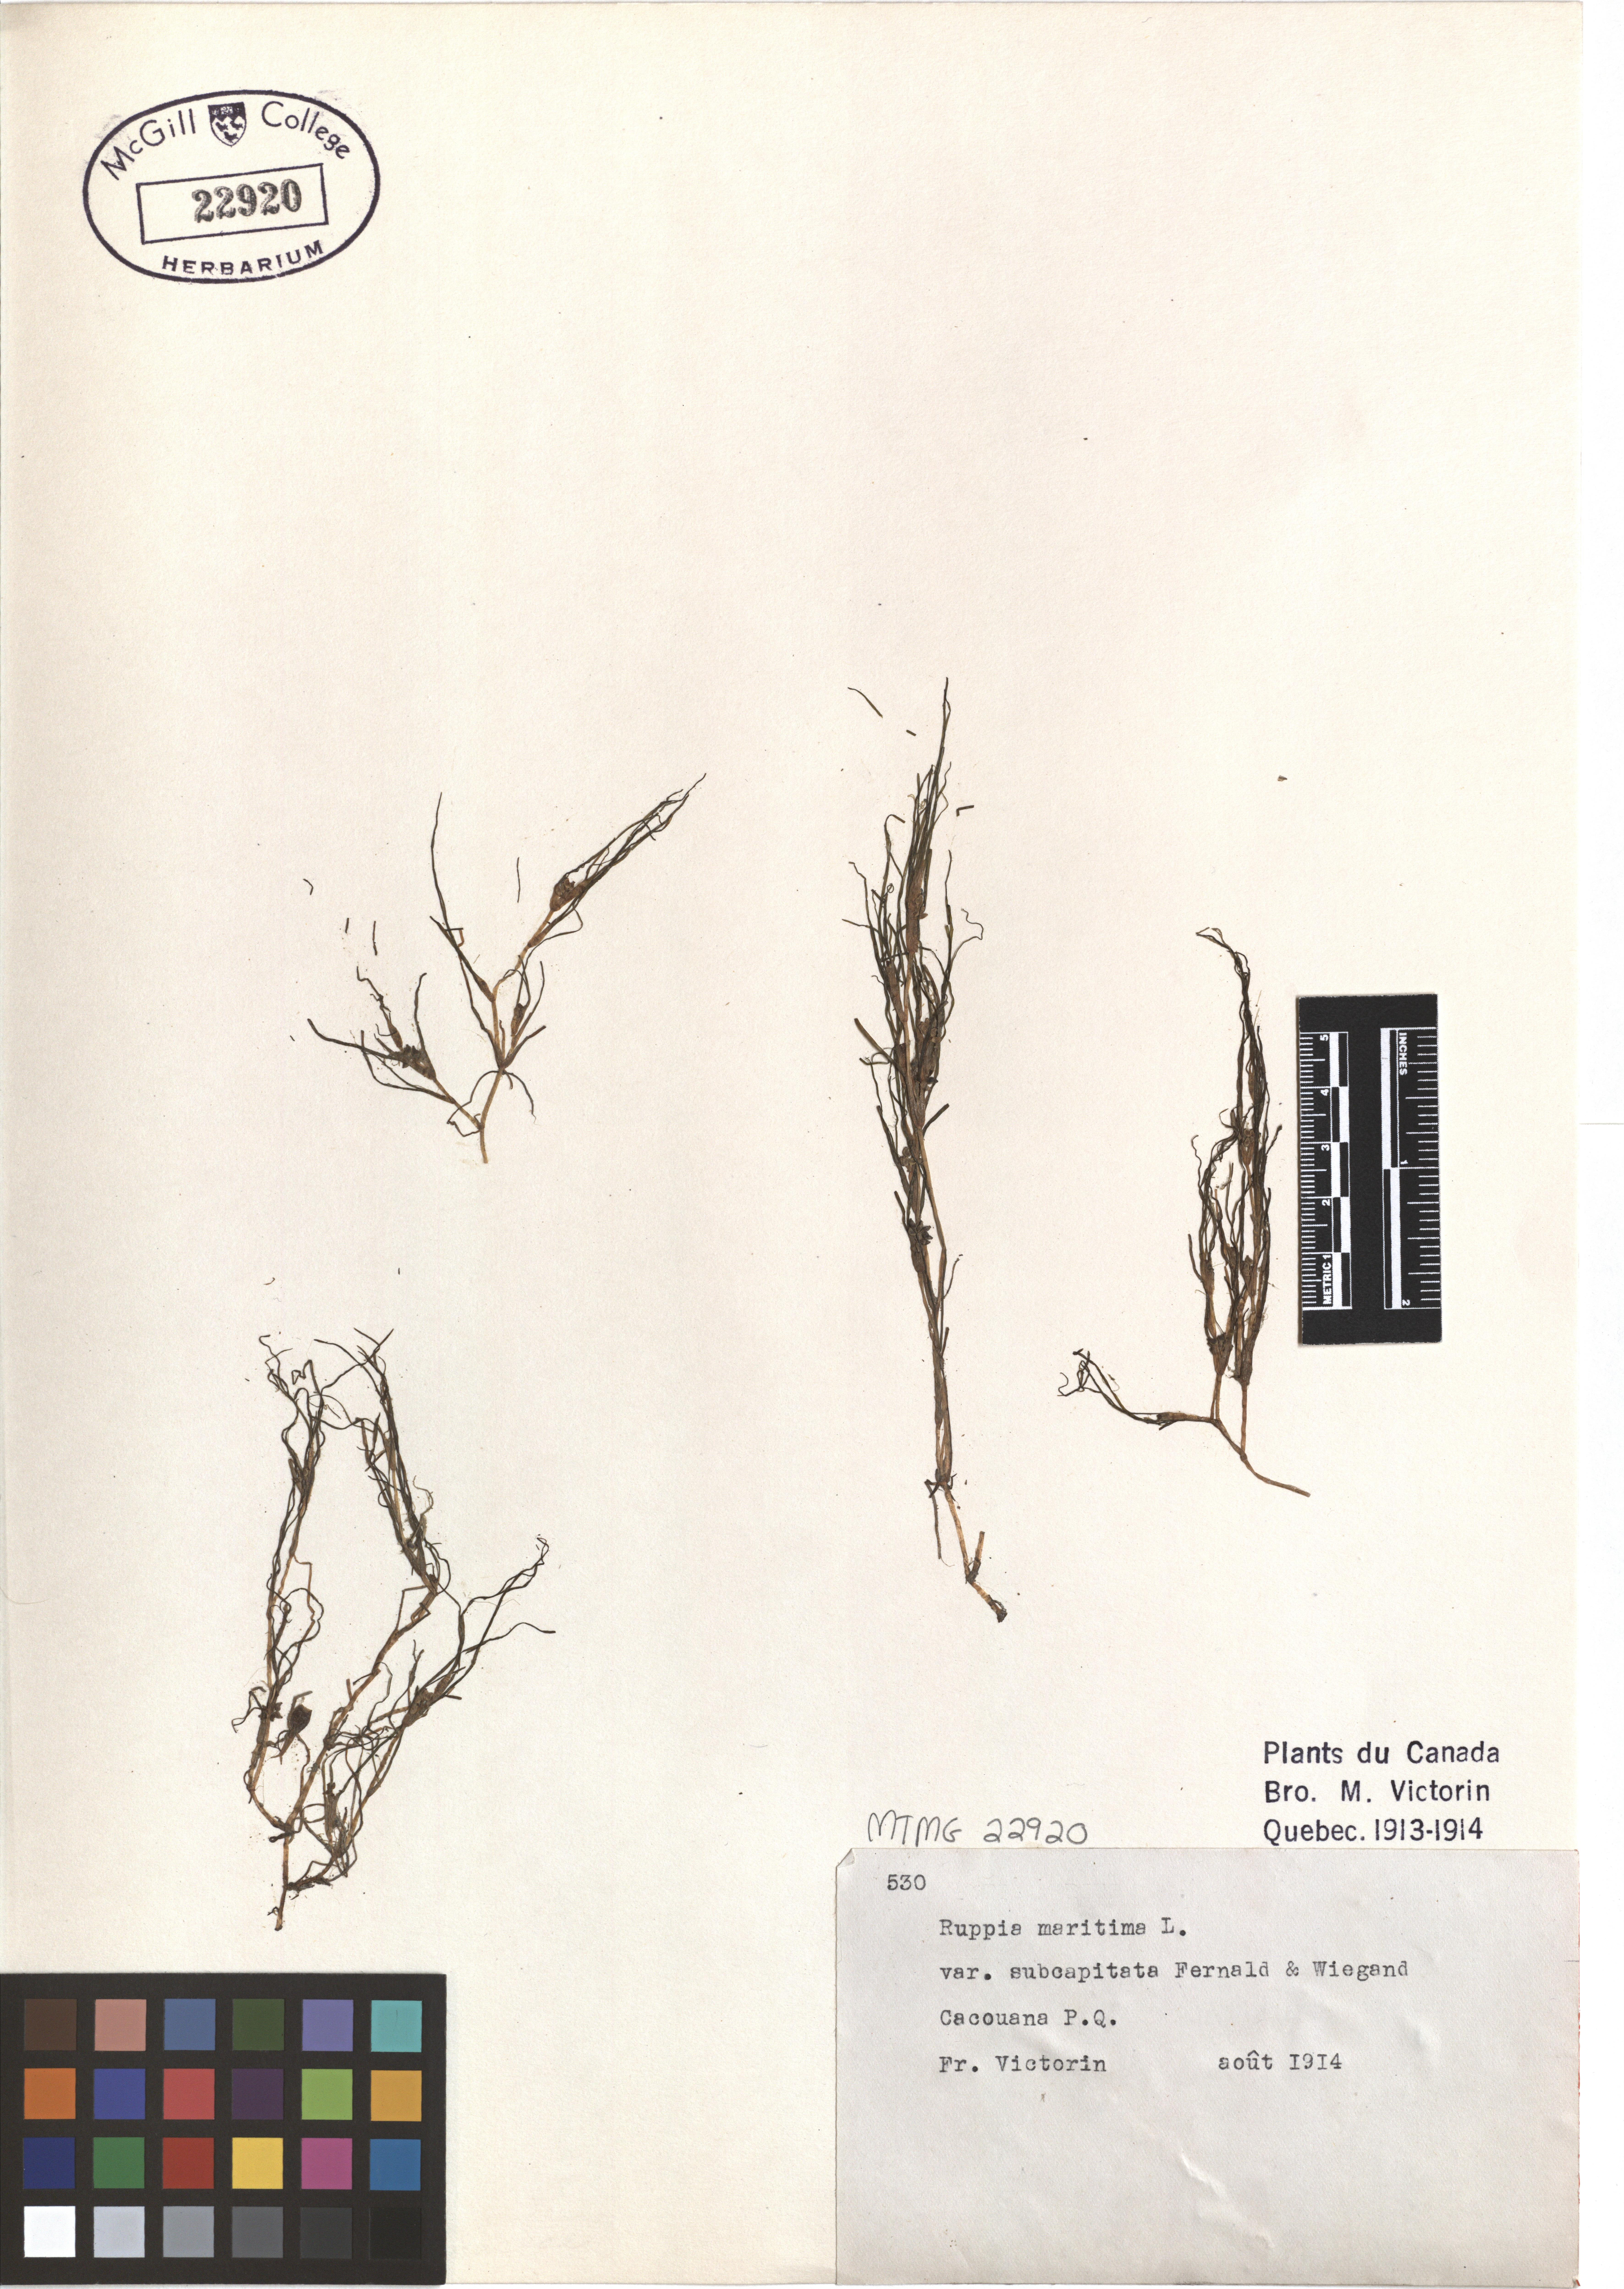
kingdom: Plantae
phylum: Tracheophyta
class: Liliopsida
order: Alismatales
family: Ruppiaceae
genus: Ruppia
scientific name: Ruppia maritima
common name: Beaked tasselweed
